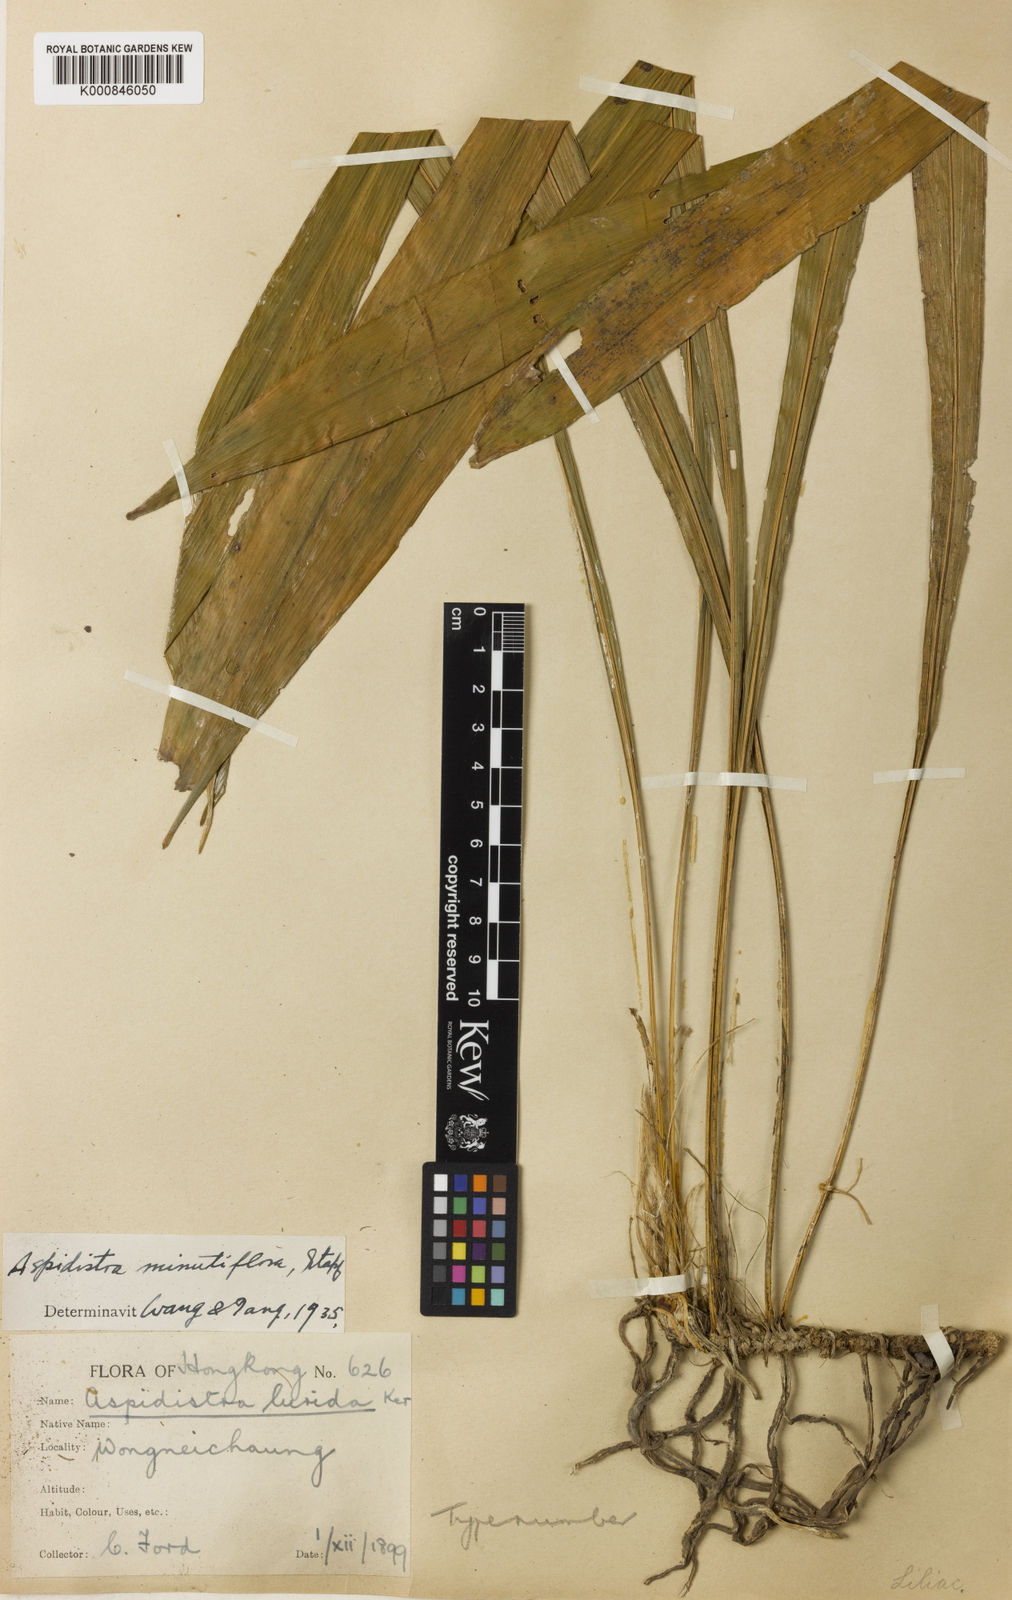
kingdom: Plantae
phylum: Tracheophyta
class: Liliopsida
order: Asparagales
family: Asparagaceae
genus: Aspidistra
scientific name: Aspidistra minutiflora
